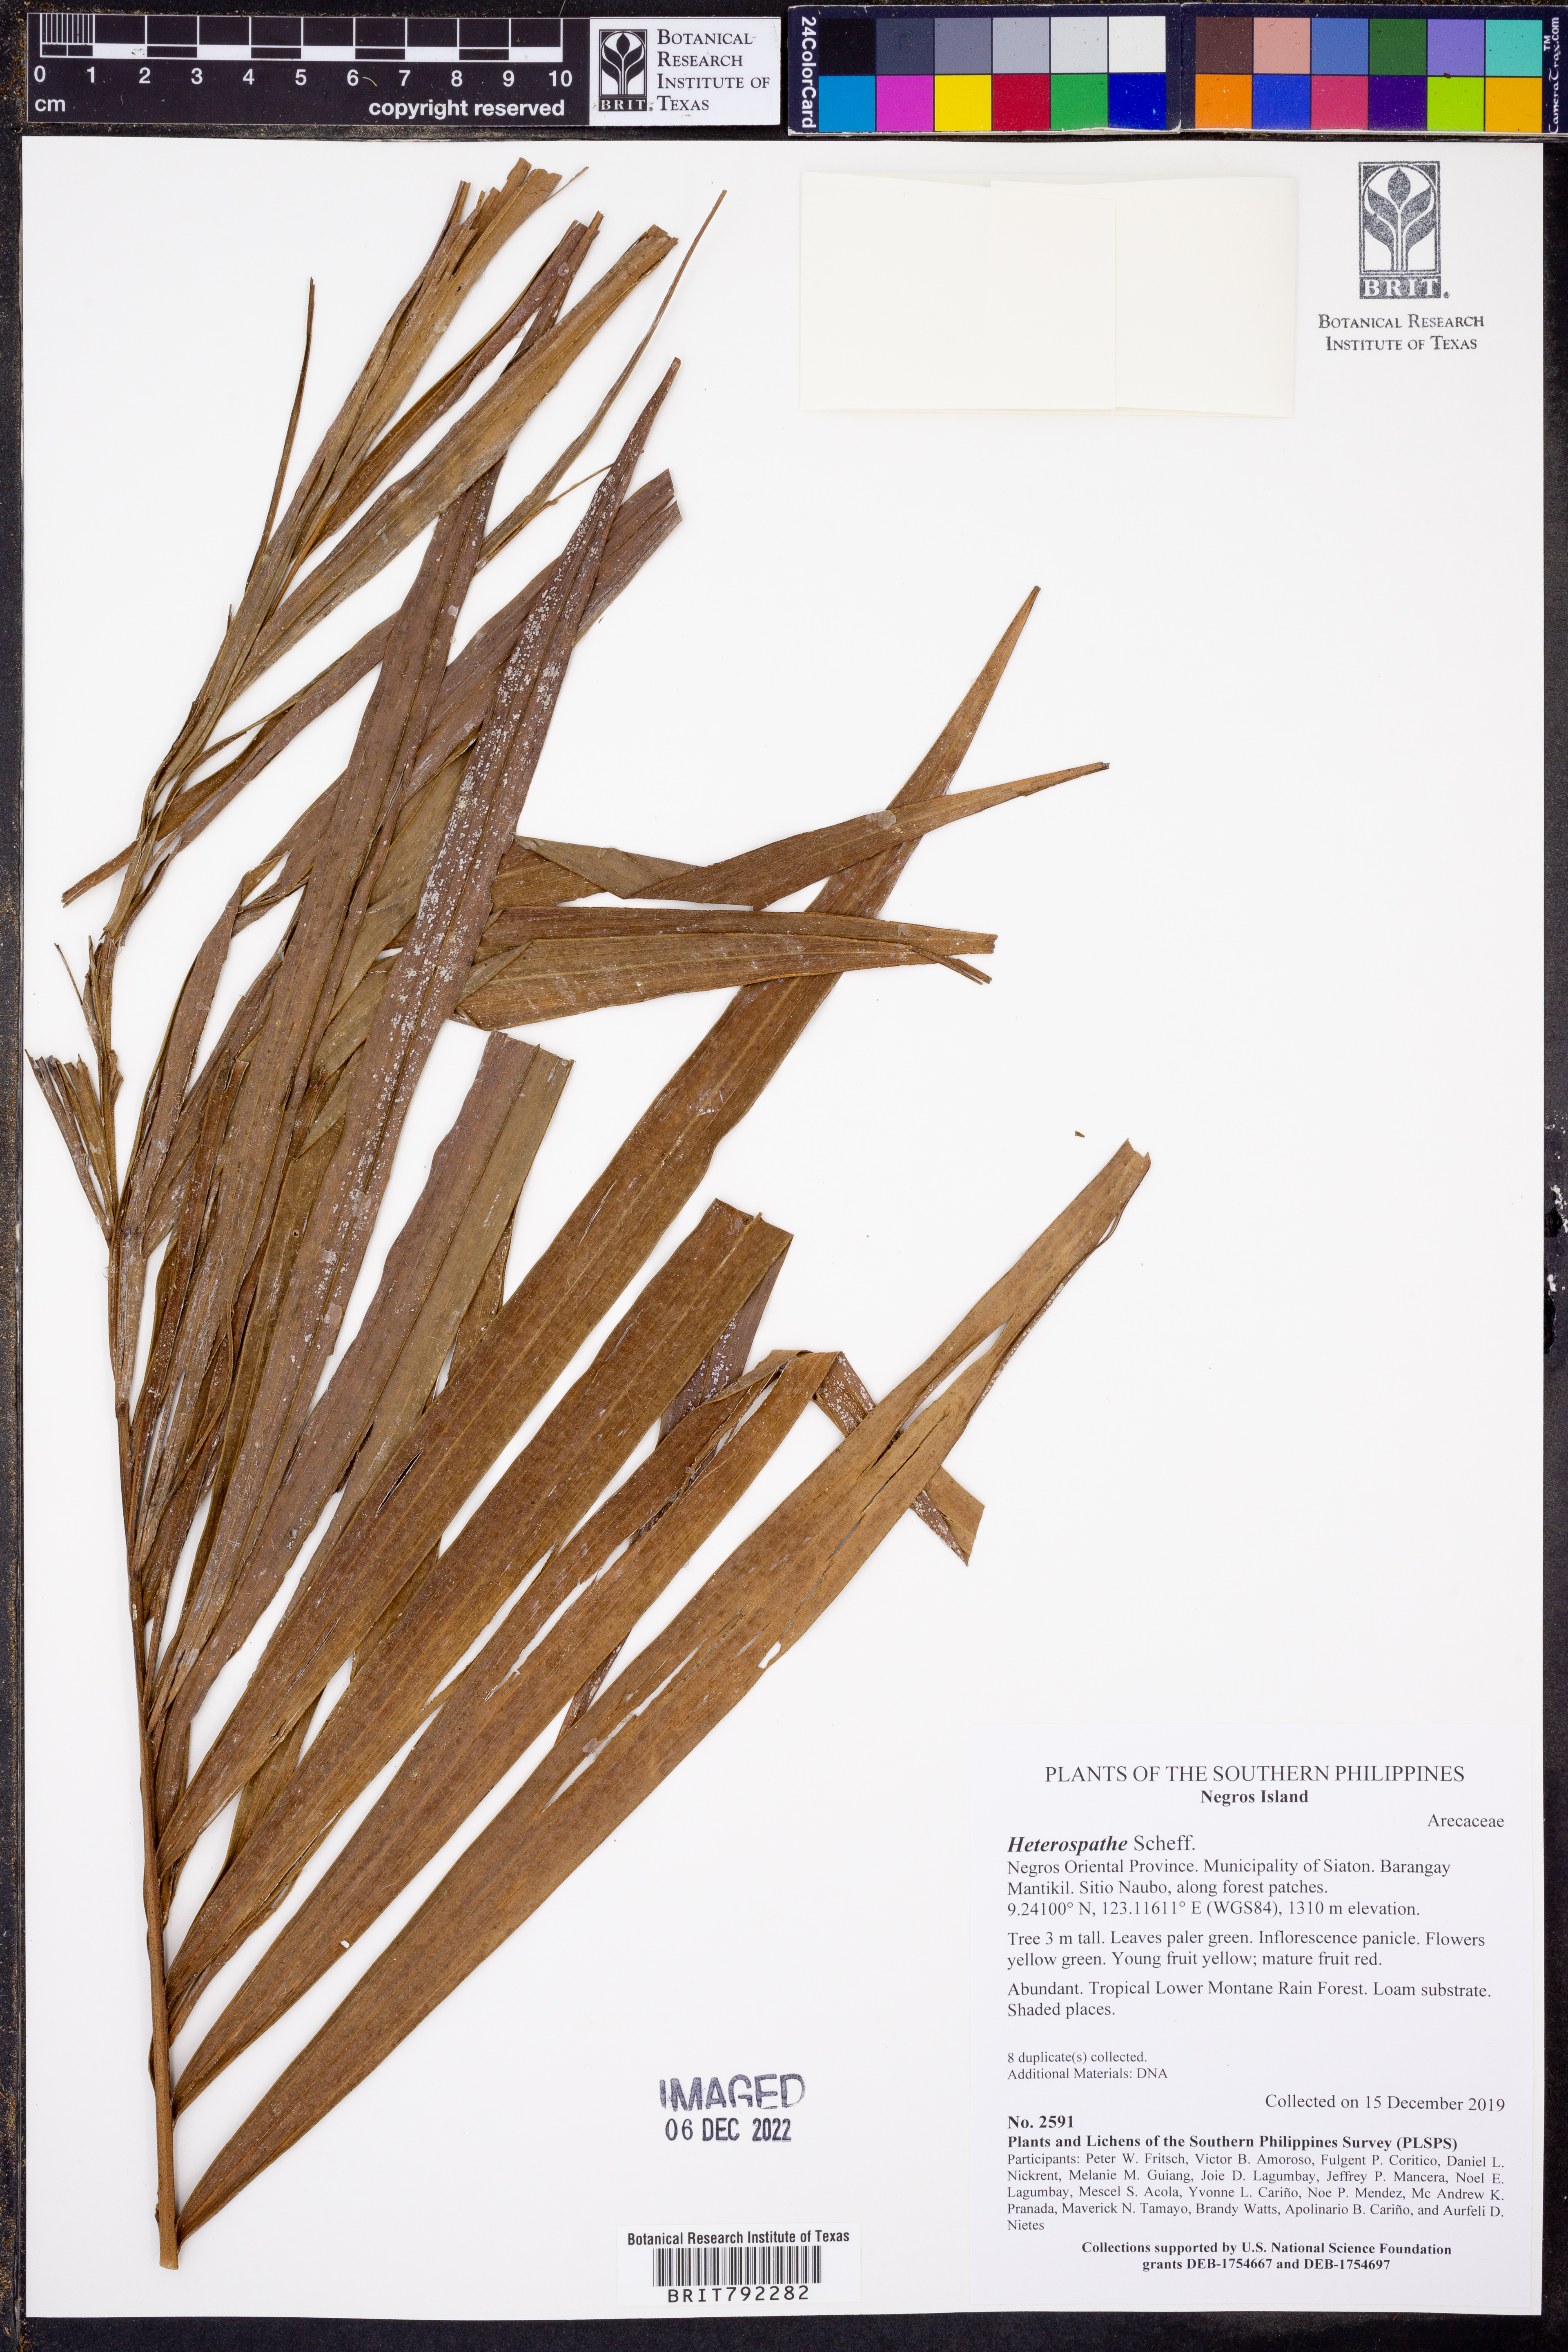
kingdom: Plantae
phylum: Tracheophyta
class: Liliopsida
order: Arecales
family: Arecaceae
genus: Heterospathe
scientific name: Heterospathe
